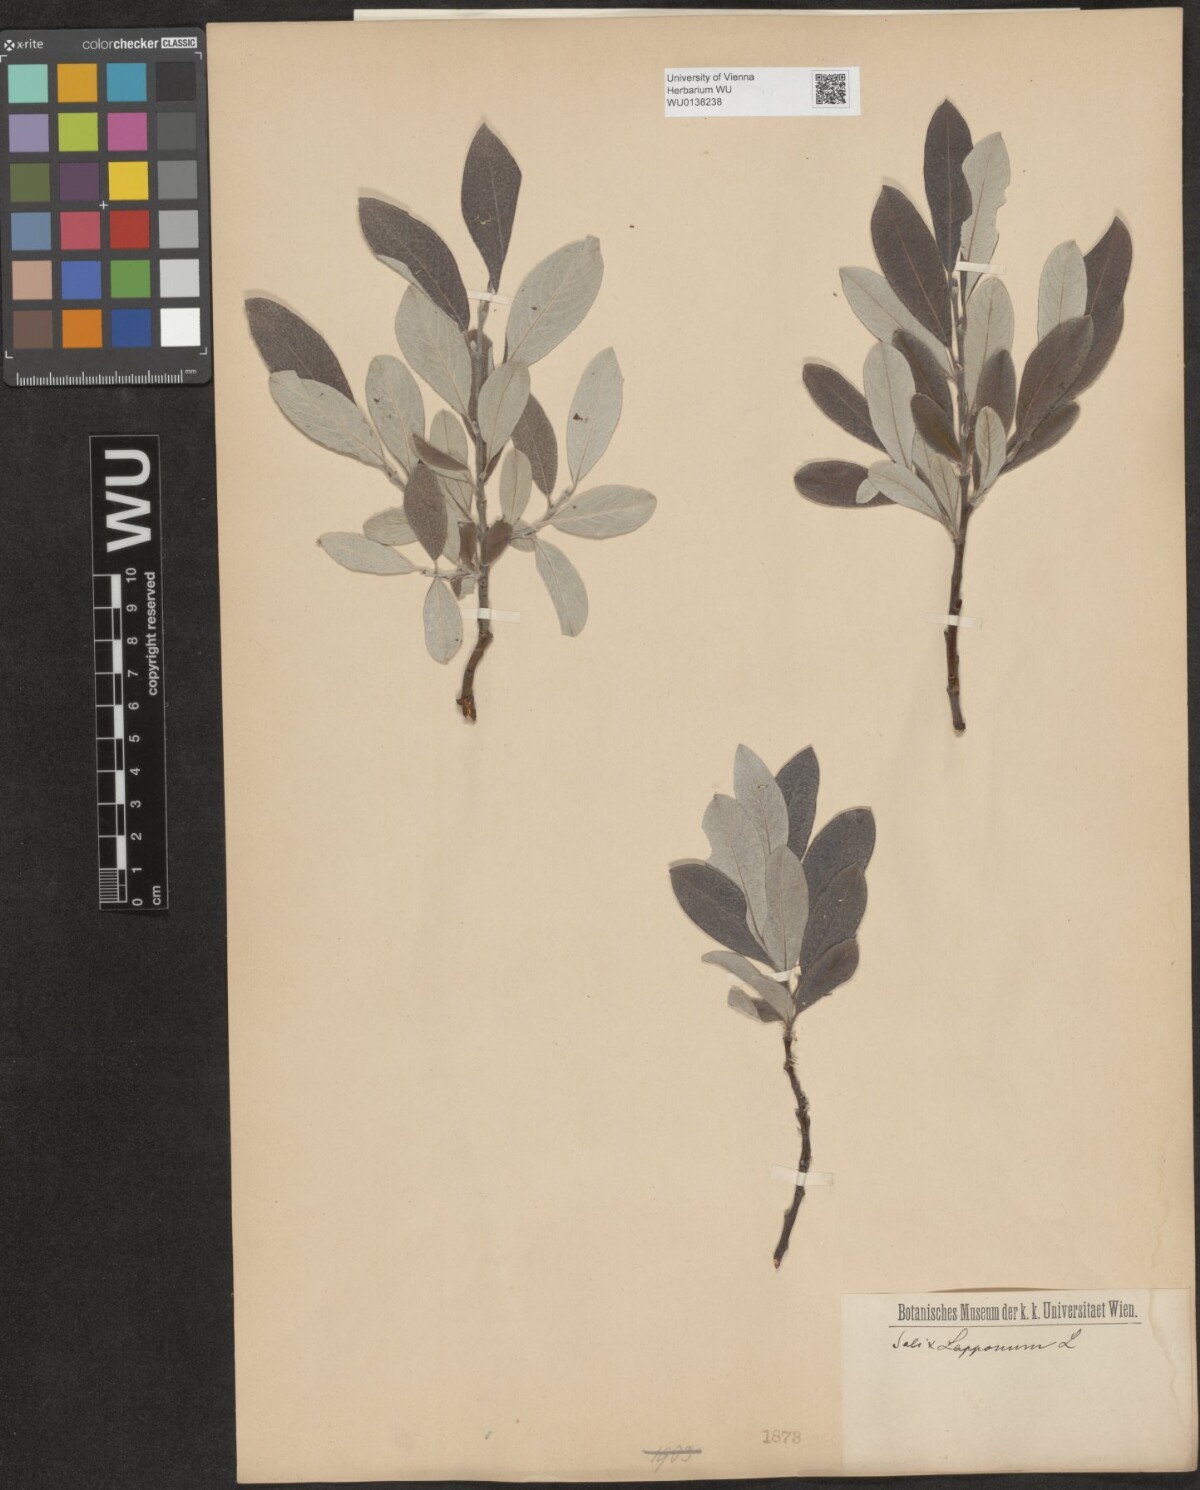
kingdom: Plantae
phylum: Tracheophyta
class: Magnoliopsida
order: Malpighiales
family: Salicaceae
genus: Salix
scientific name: Salix lapponum
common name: Downy willow
